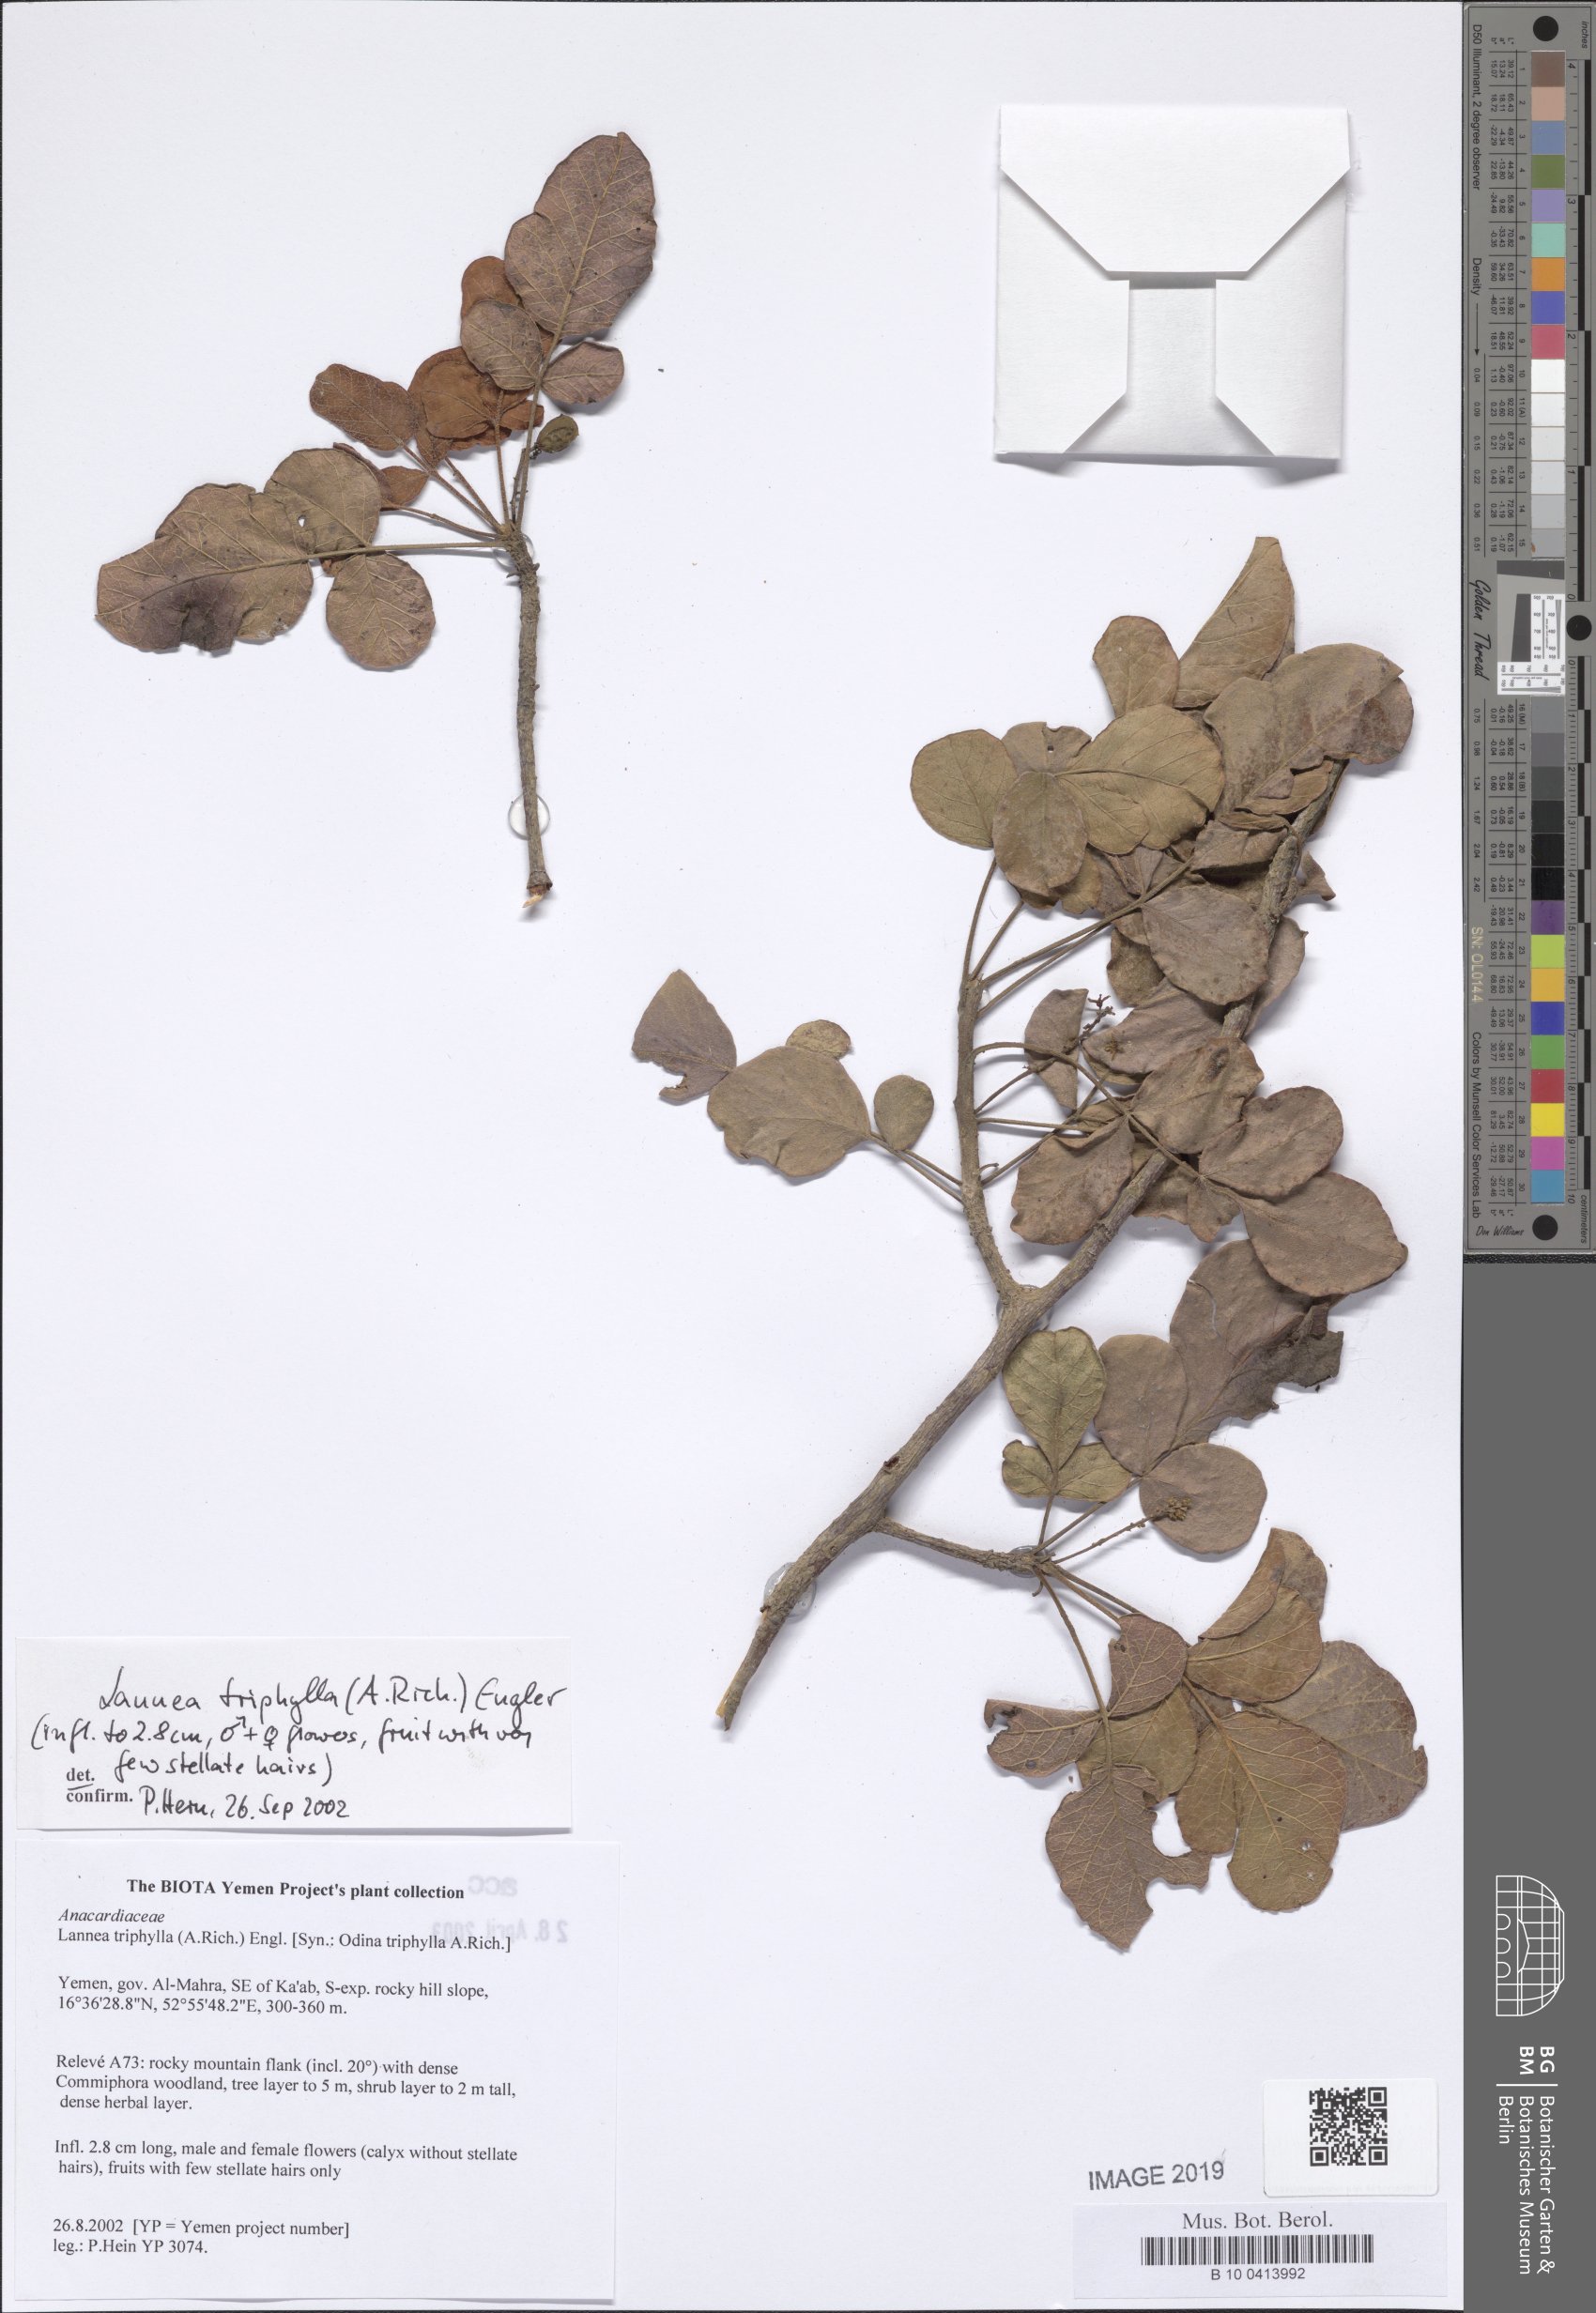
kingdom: Plantae
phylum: Tracheophyta
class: Magnoliopsida
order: Sapindales
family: Anacardiaceae
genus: Lannea
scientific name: Lannea triphylla
